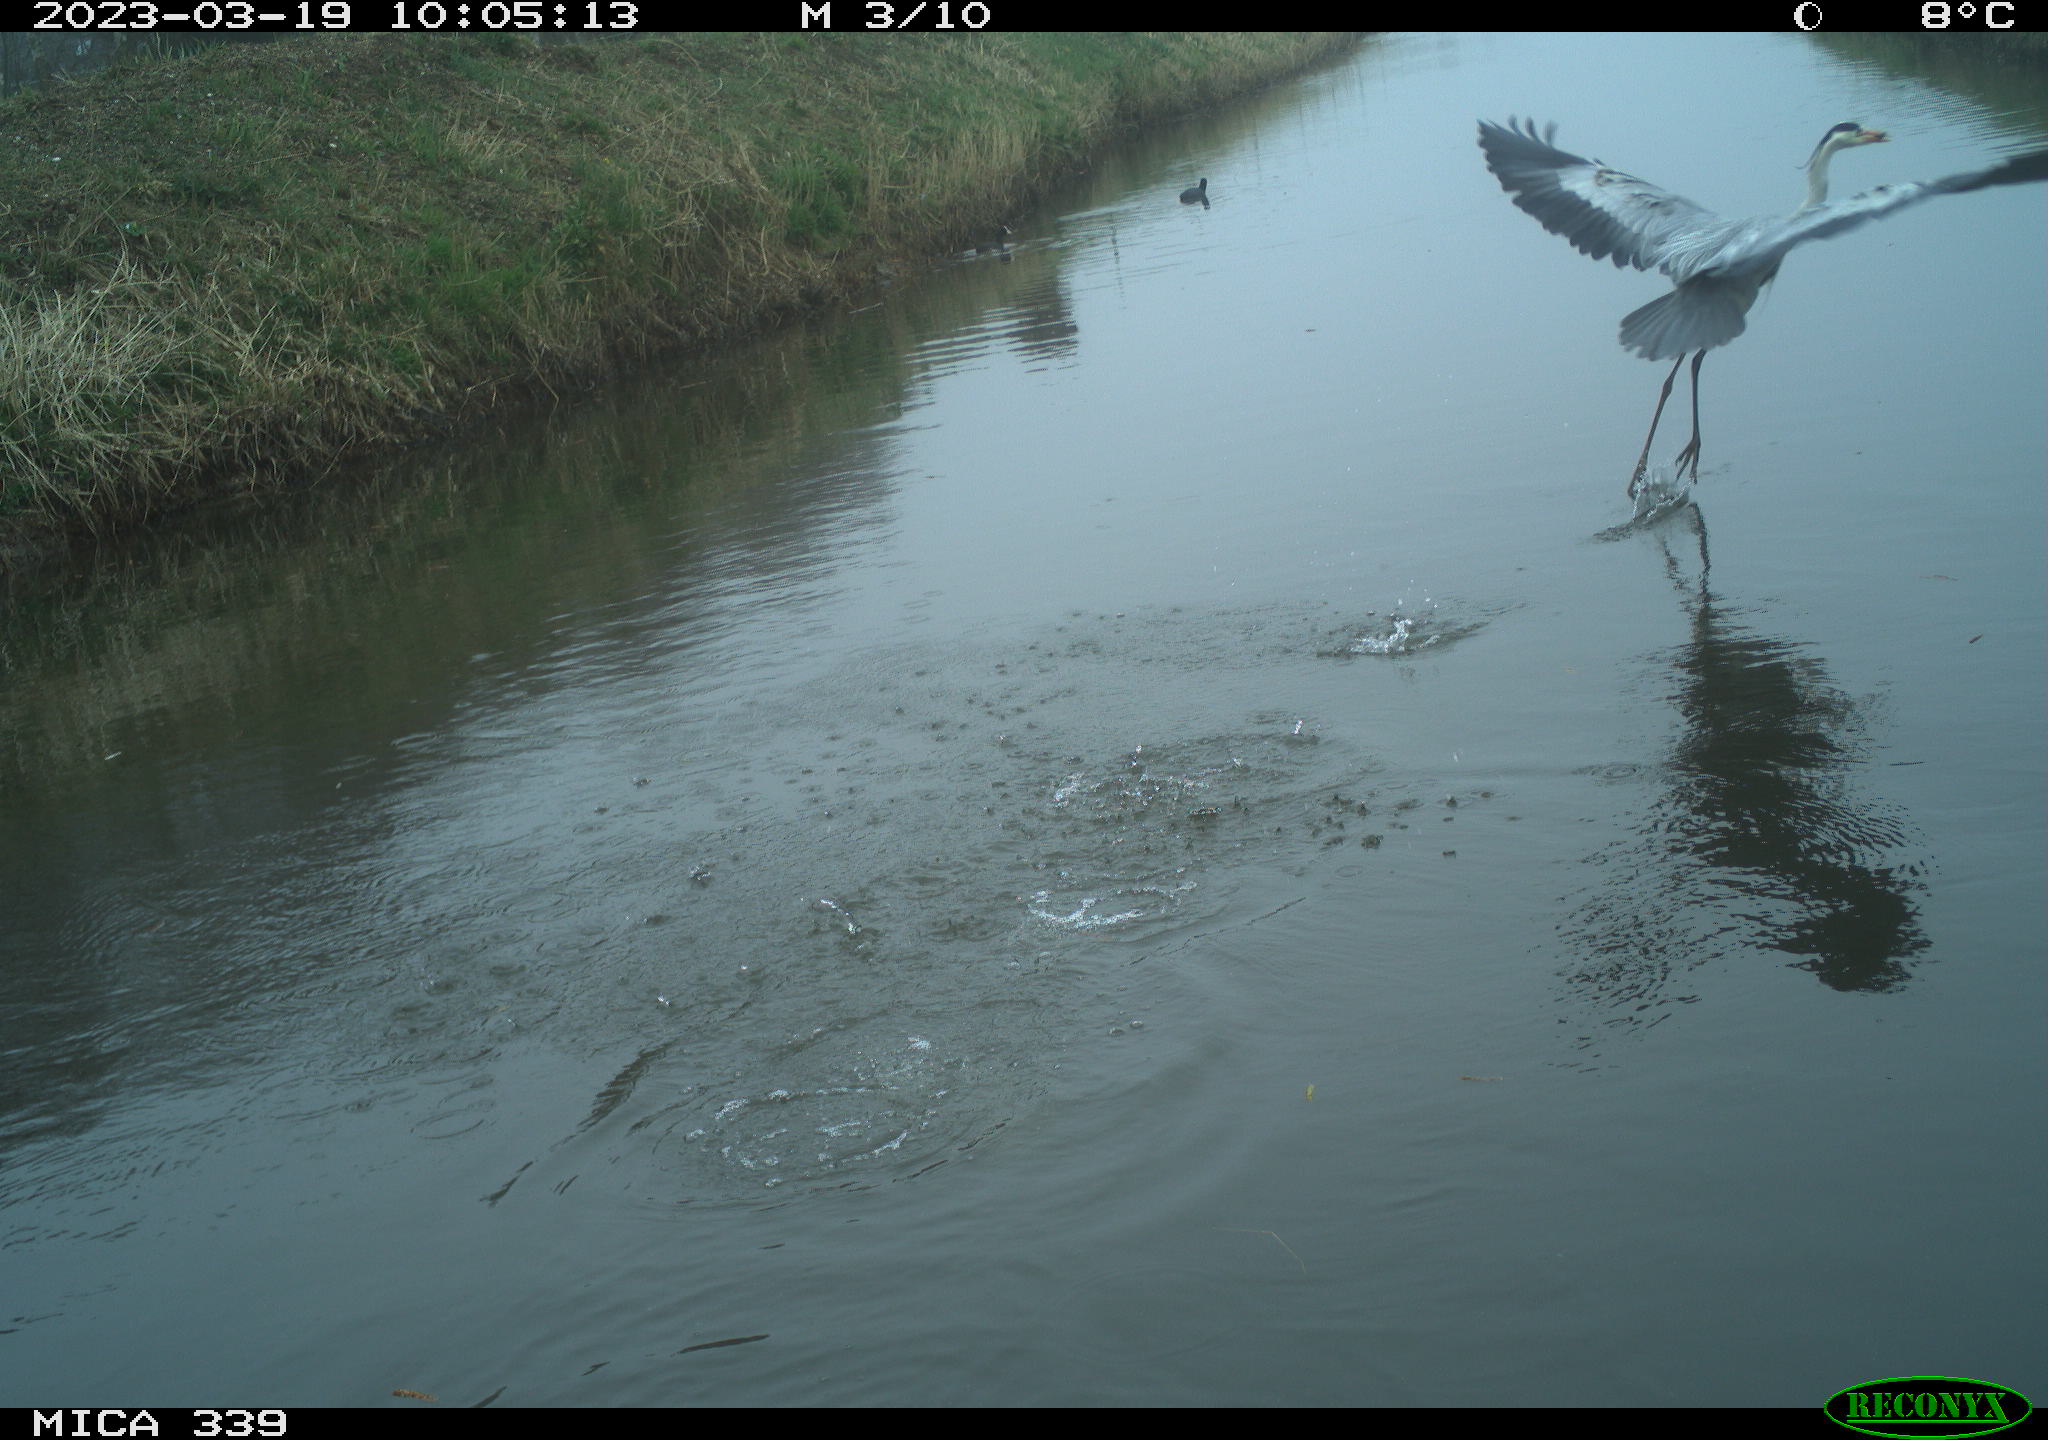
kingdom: Animalia
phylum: Chordata
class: Aves
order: Pelecaniformes
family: Ardeidae
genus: Ardea
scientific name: Ardea
